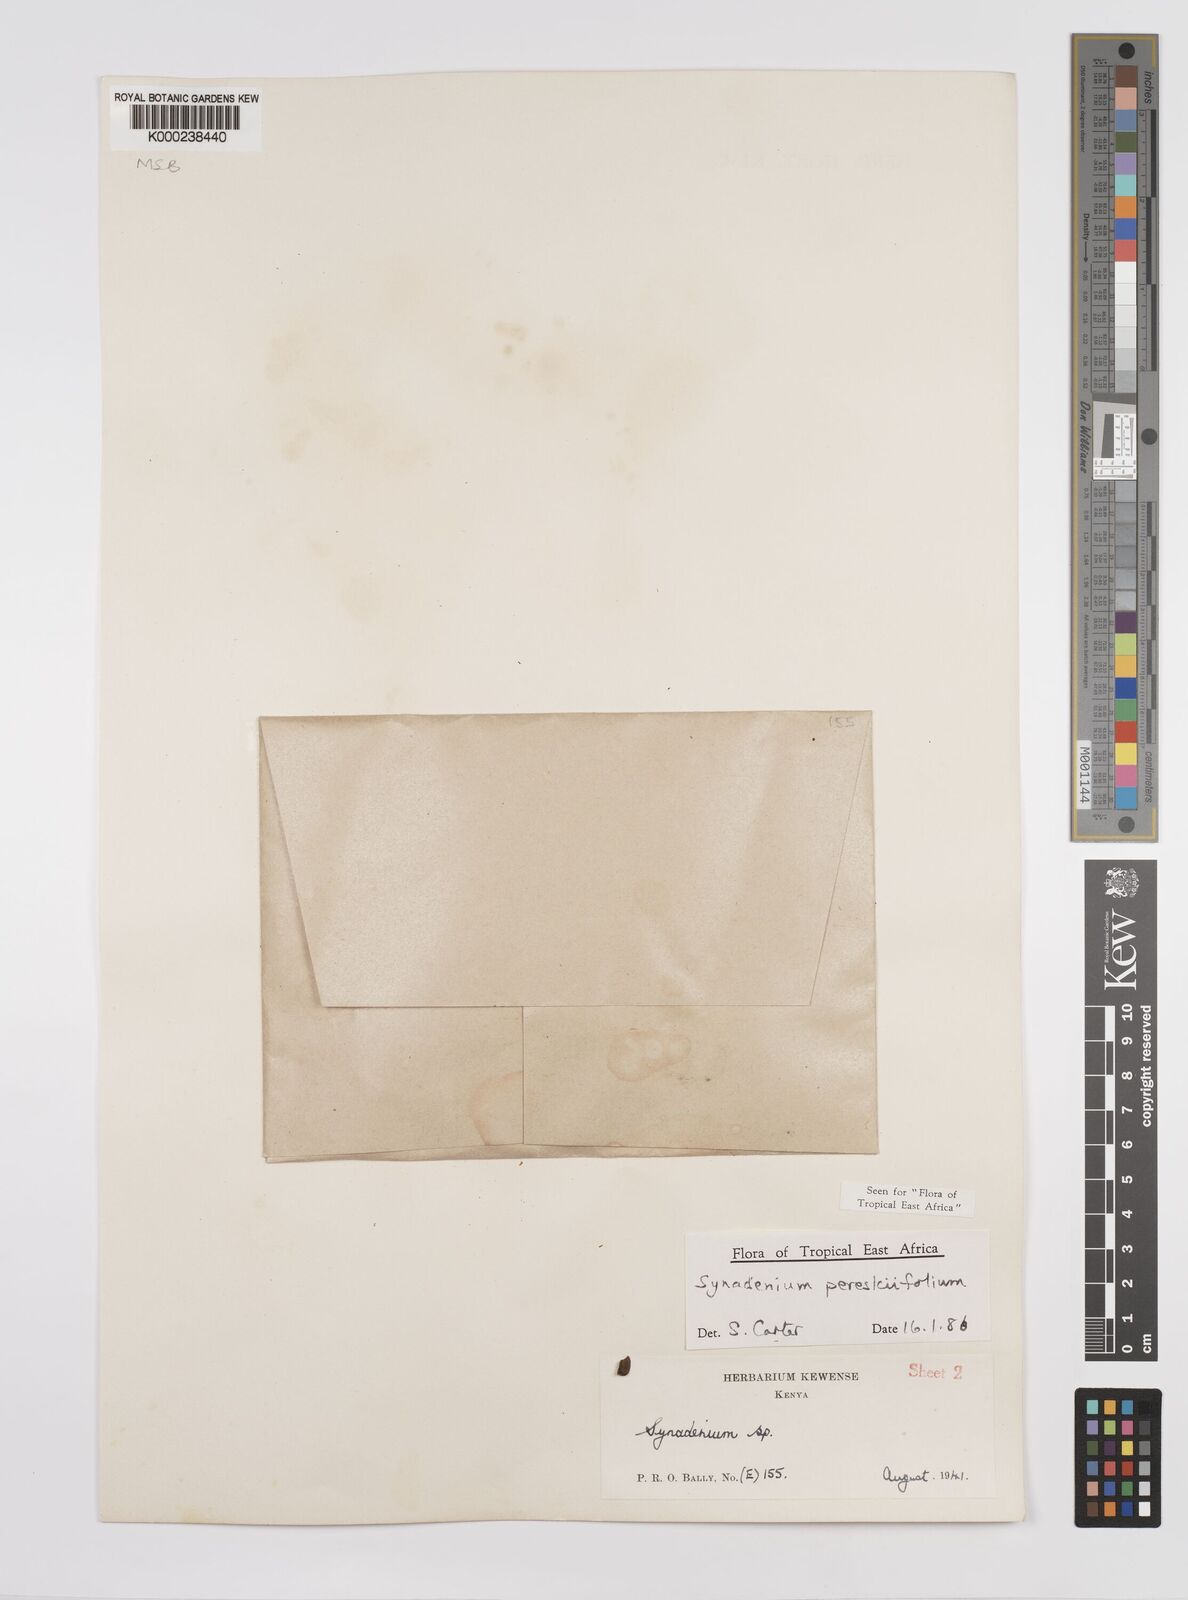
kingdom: Plantae
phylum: Tracheophyta
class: Magnoliopsida
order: Malpighiales
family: Euphorbiaceae
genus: Euphorbia
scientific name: Euphorbia pereskiifolia
